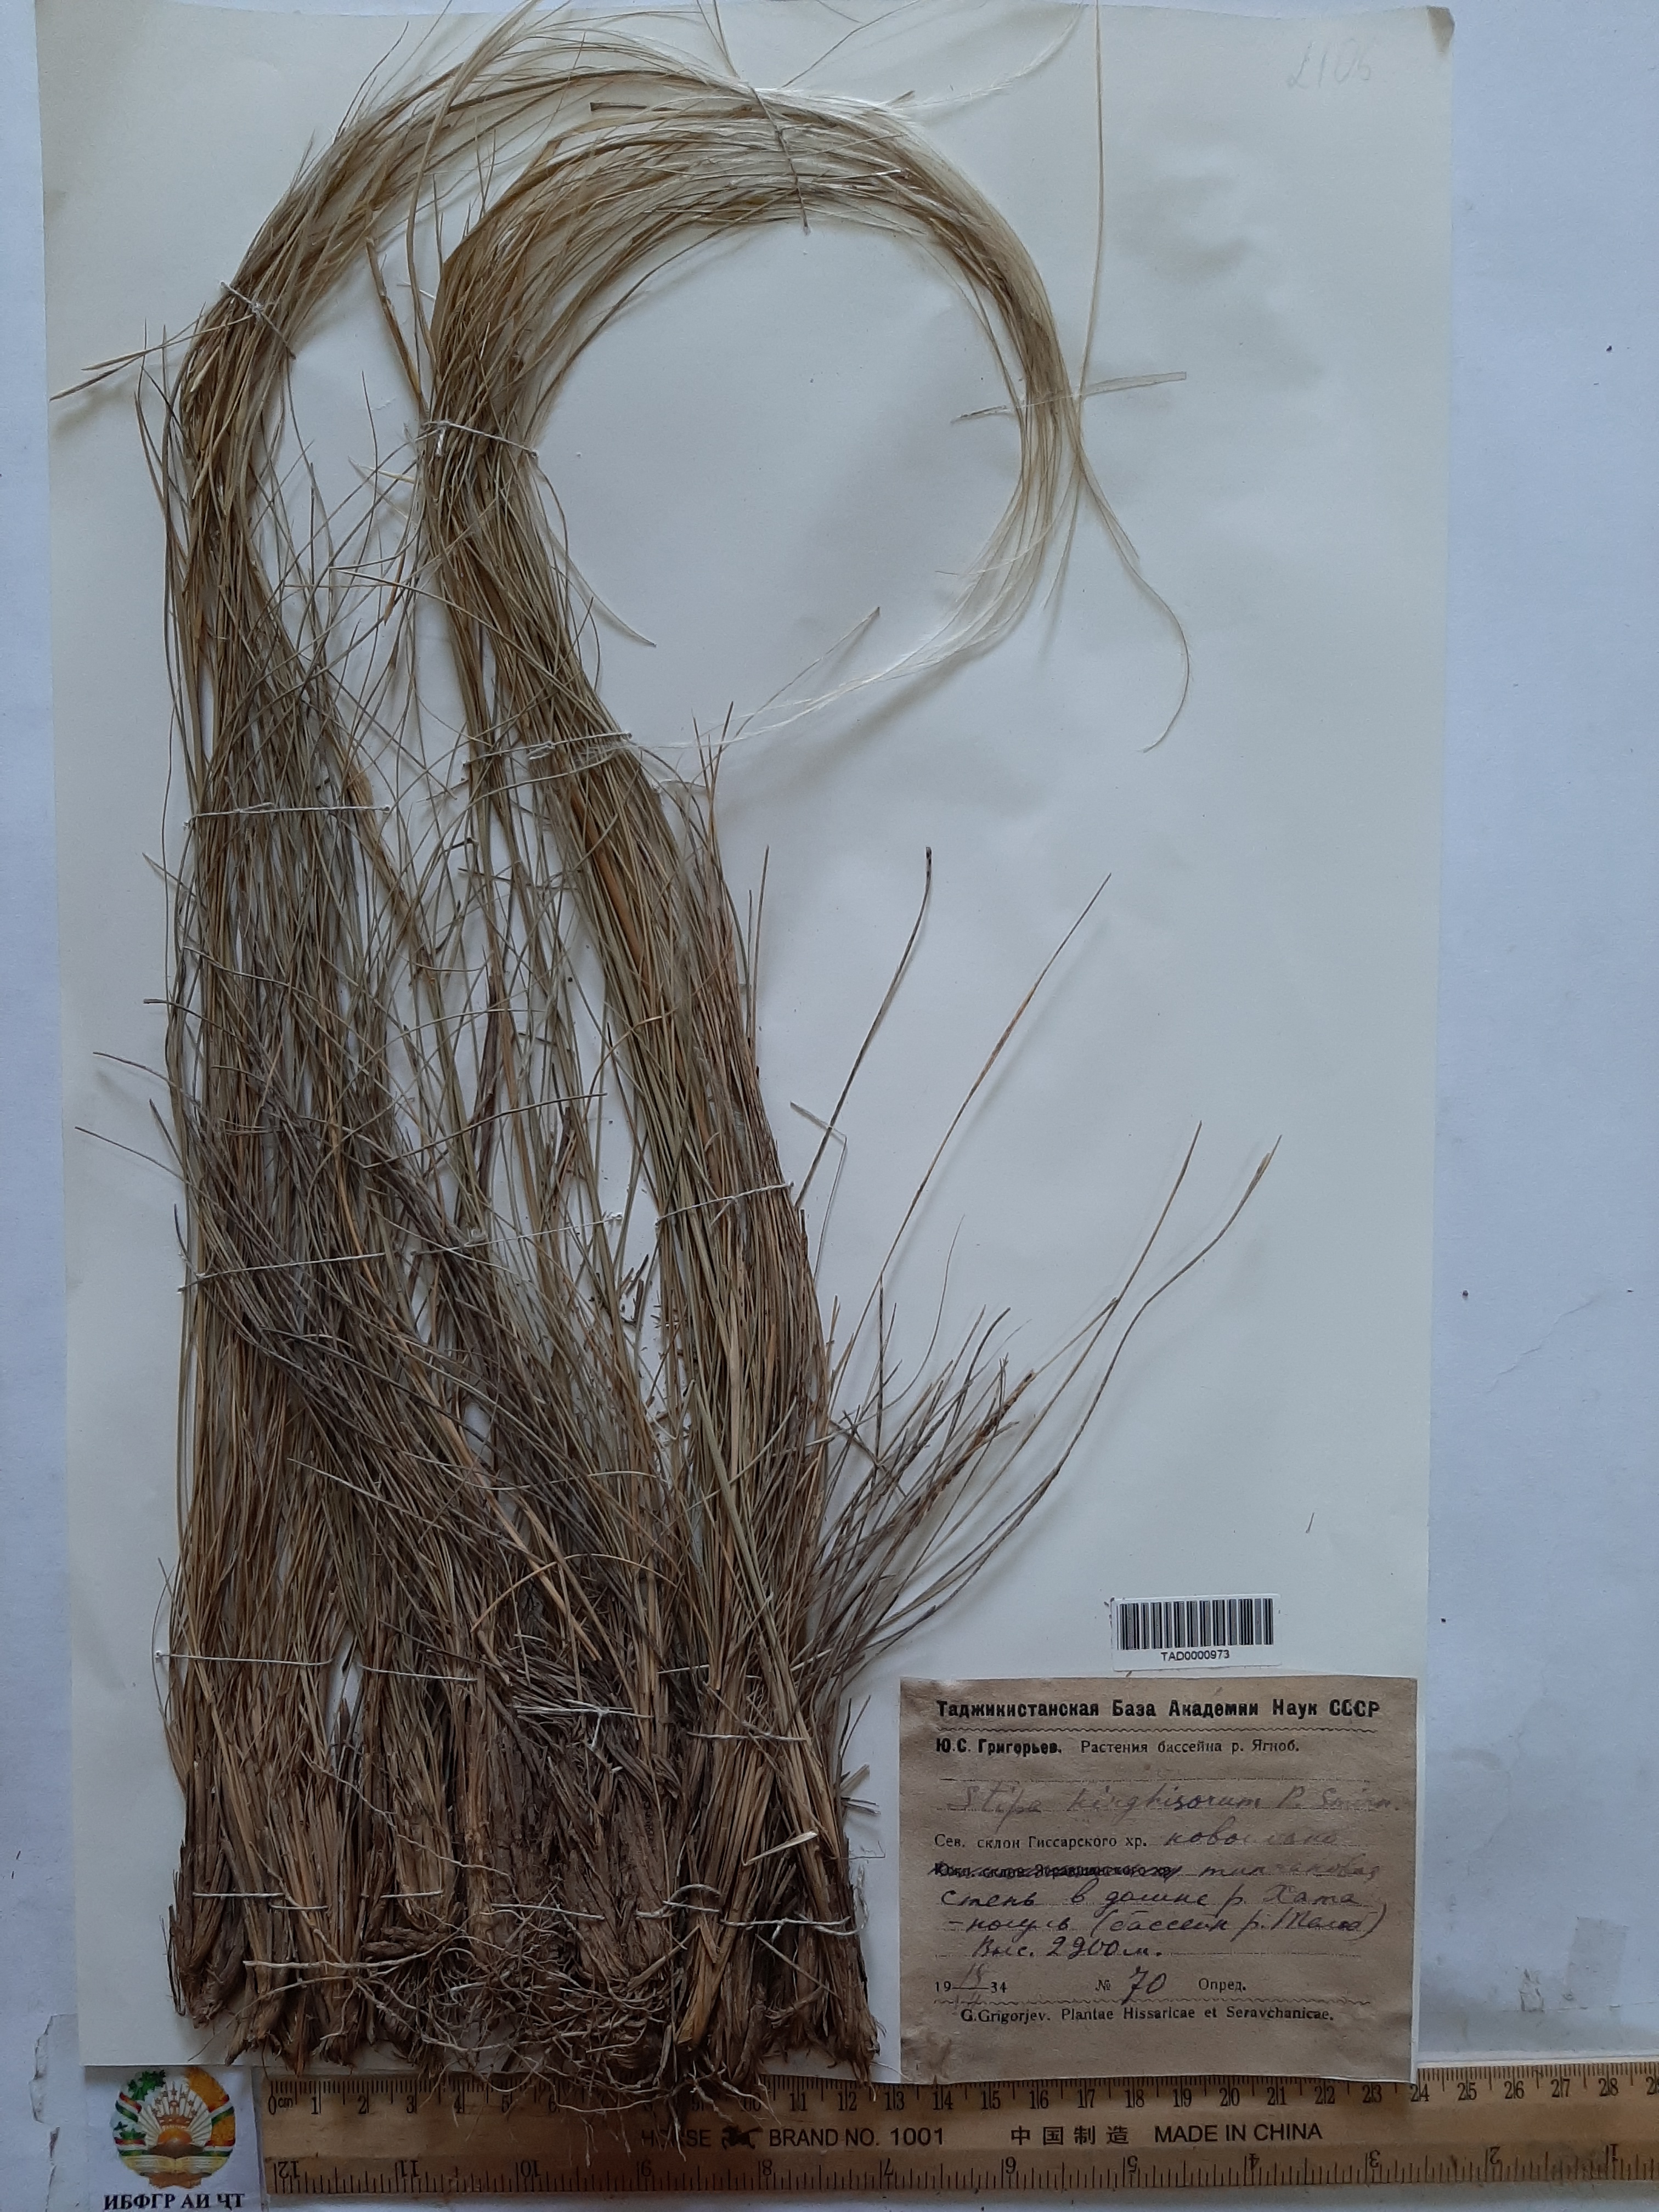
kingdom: Plantae
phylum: Tracheophyta
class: Liliopsida
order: Poales
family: Poaceae
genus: Stipa
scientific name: Stipa kirghisorum
